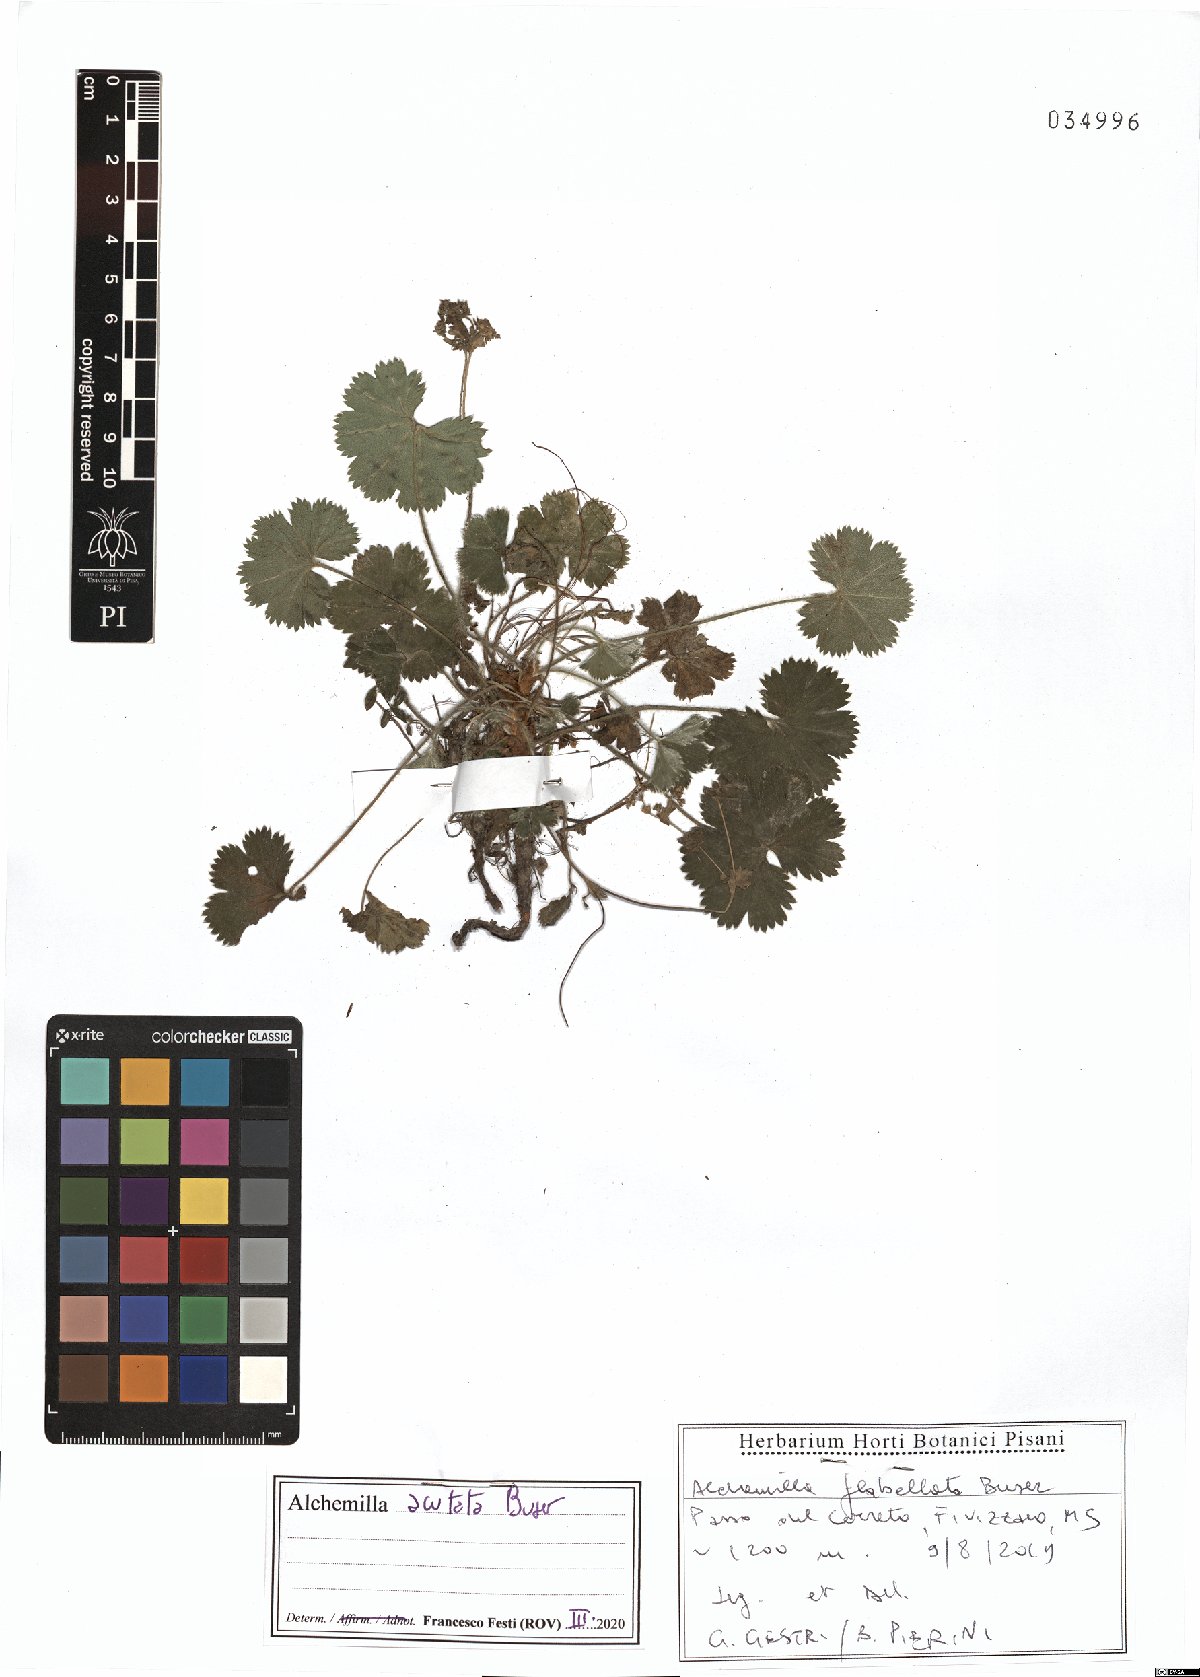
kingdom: Plantae
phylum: Tracheophyta
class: Magnoliopsida
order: Rosales
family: Rosaceae
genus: Alchemilla
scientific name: Alchemilla acutata
